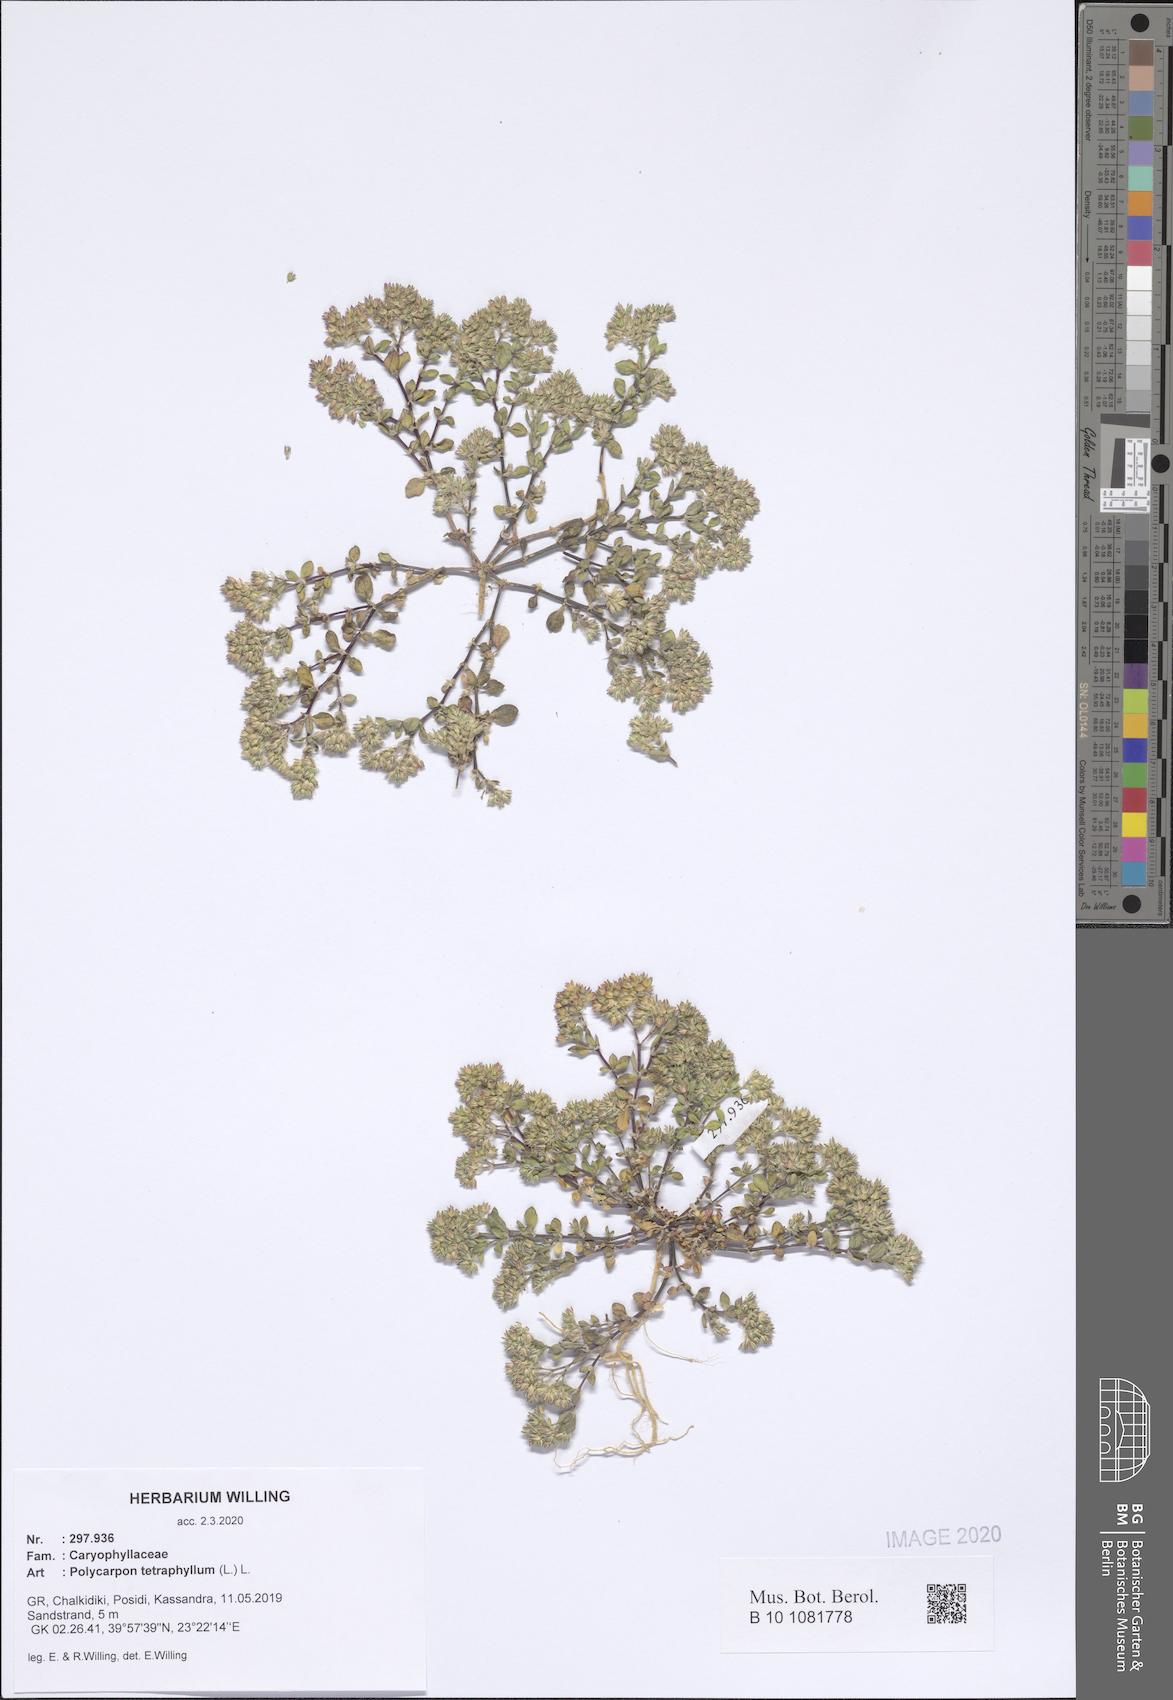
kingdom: Plantae
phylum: Tracheophyta
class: Magnoliopsida
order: Caryophyllales
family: Caryophyllaceae
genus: Polycarpon
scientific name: Polycarpon tetraphyllum
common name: Four-leaved all-seed
